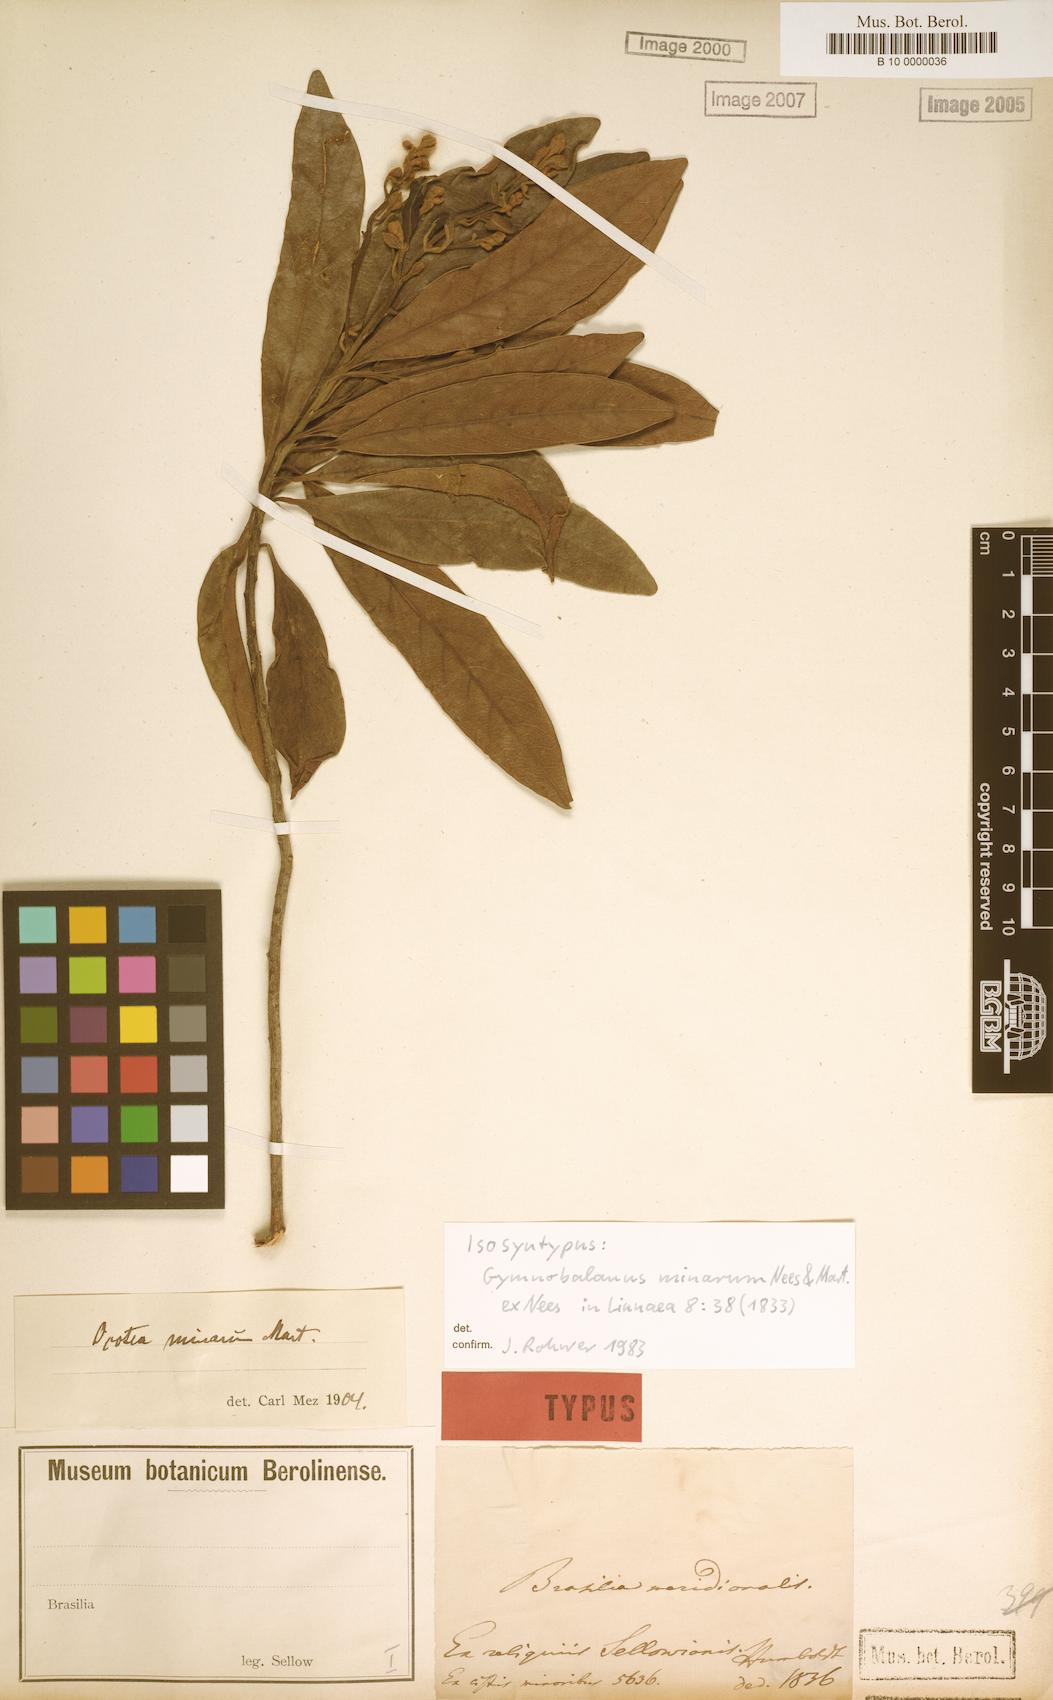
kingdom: Plantae
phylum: Tracheophyta
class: Magnoliopsida
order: Laurales
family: Lauraceae
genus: Ocotea
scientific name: Ocotea minarum
